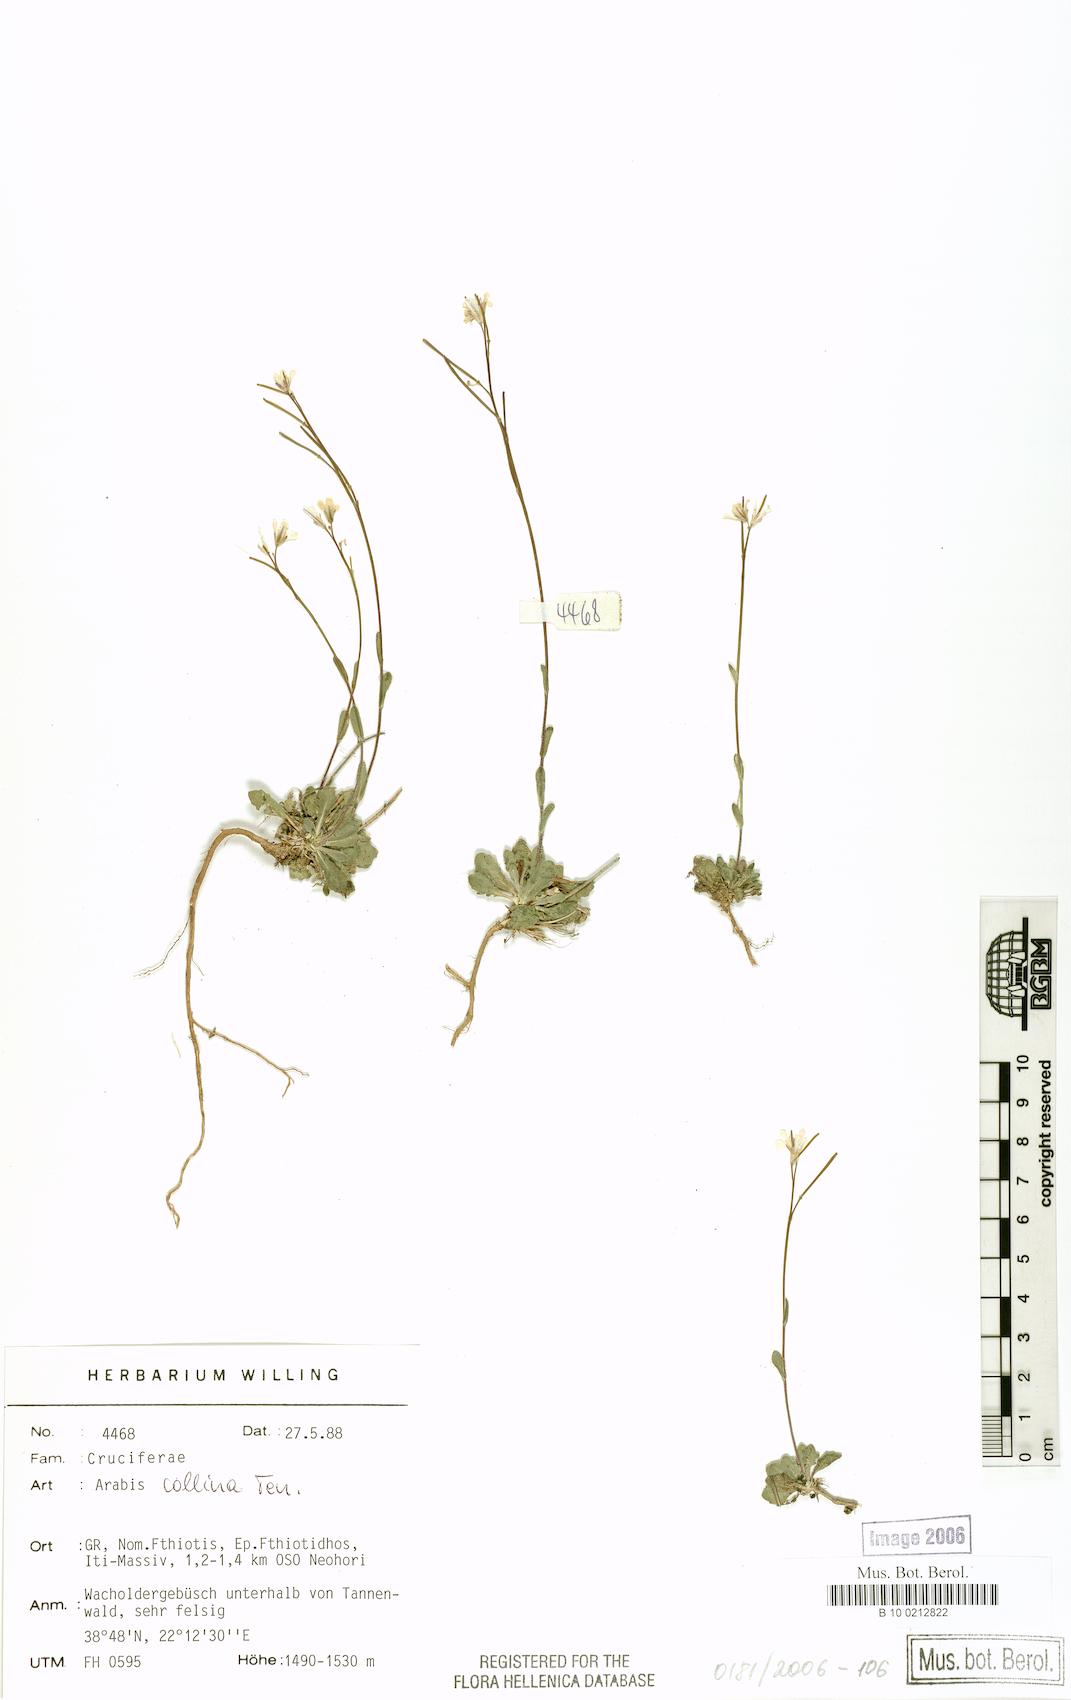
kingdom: Plantae
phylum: Tracheophyta
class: Magnoliopsida
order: Brassicales
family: Brassicaceae
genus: Arabis
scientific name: Arabis collina
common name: Rosy cress
